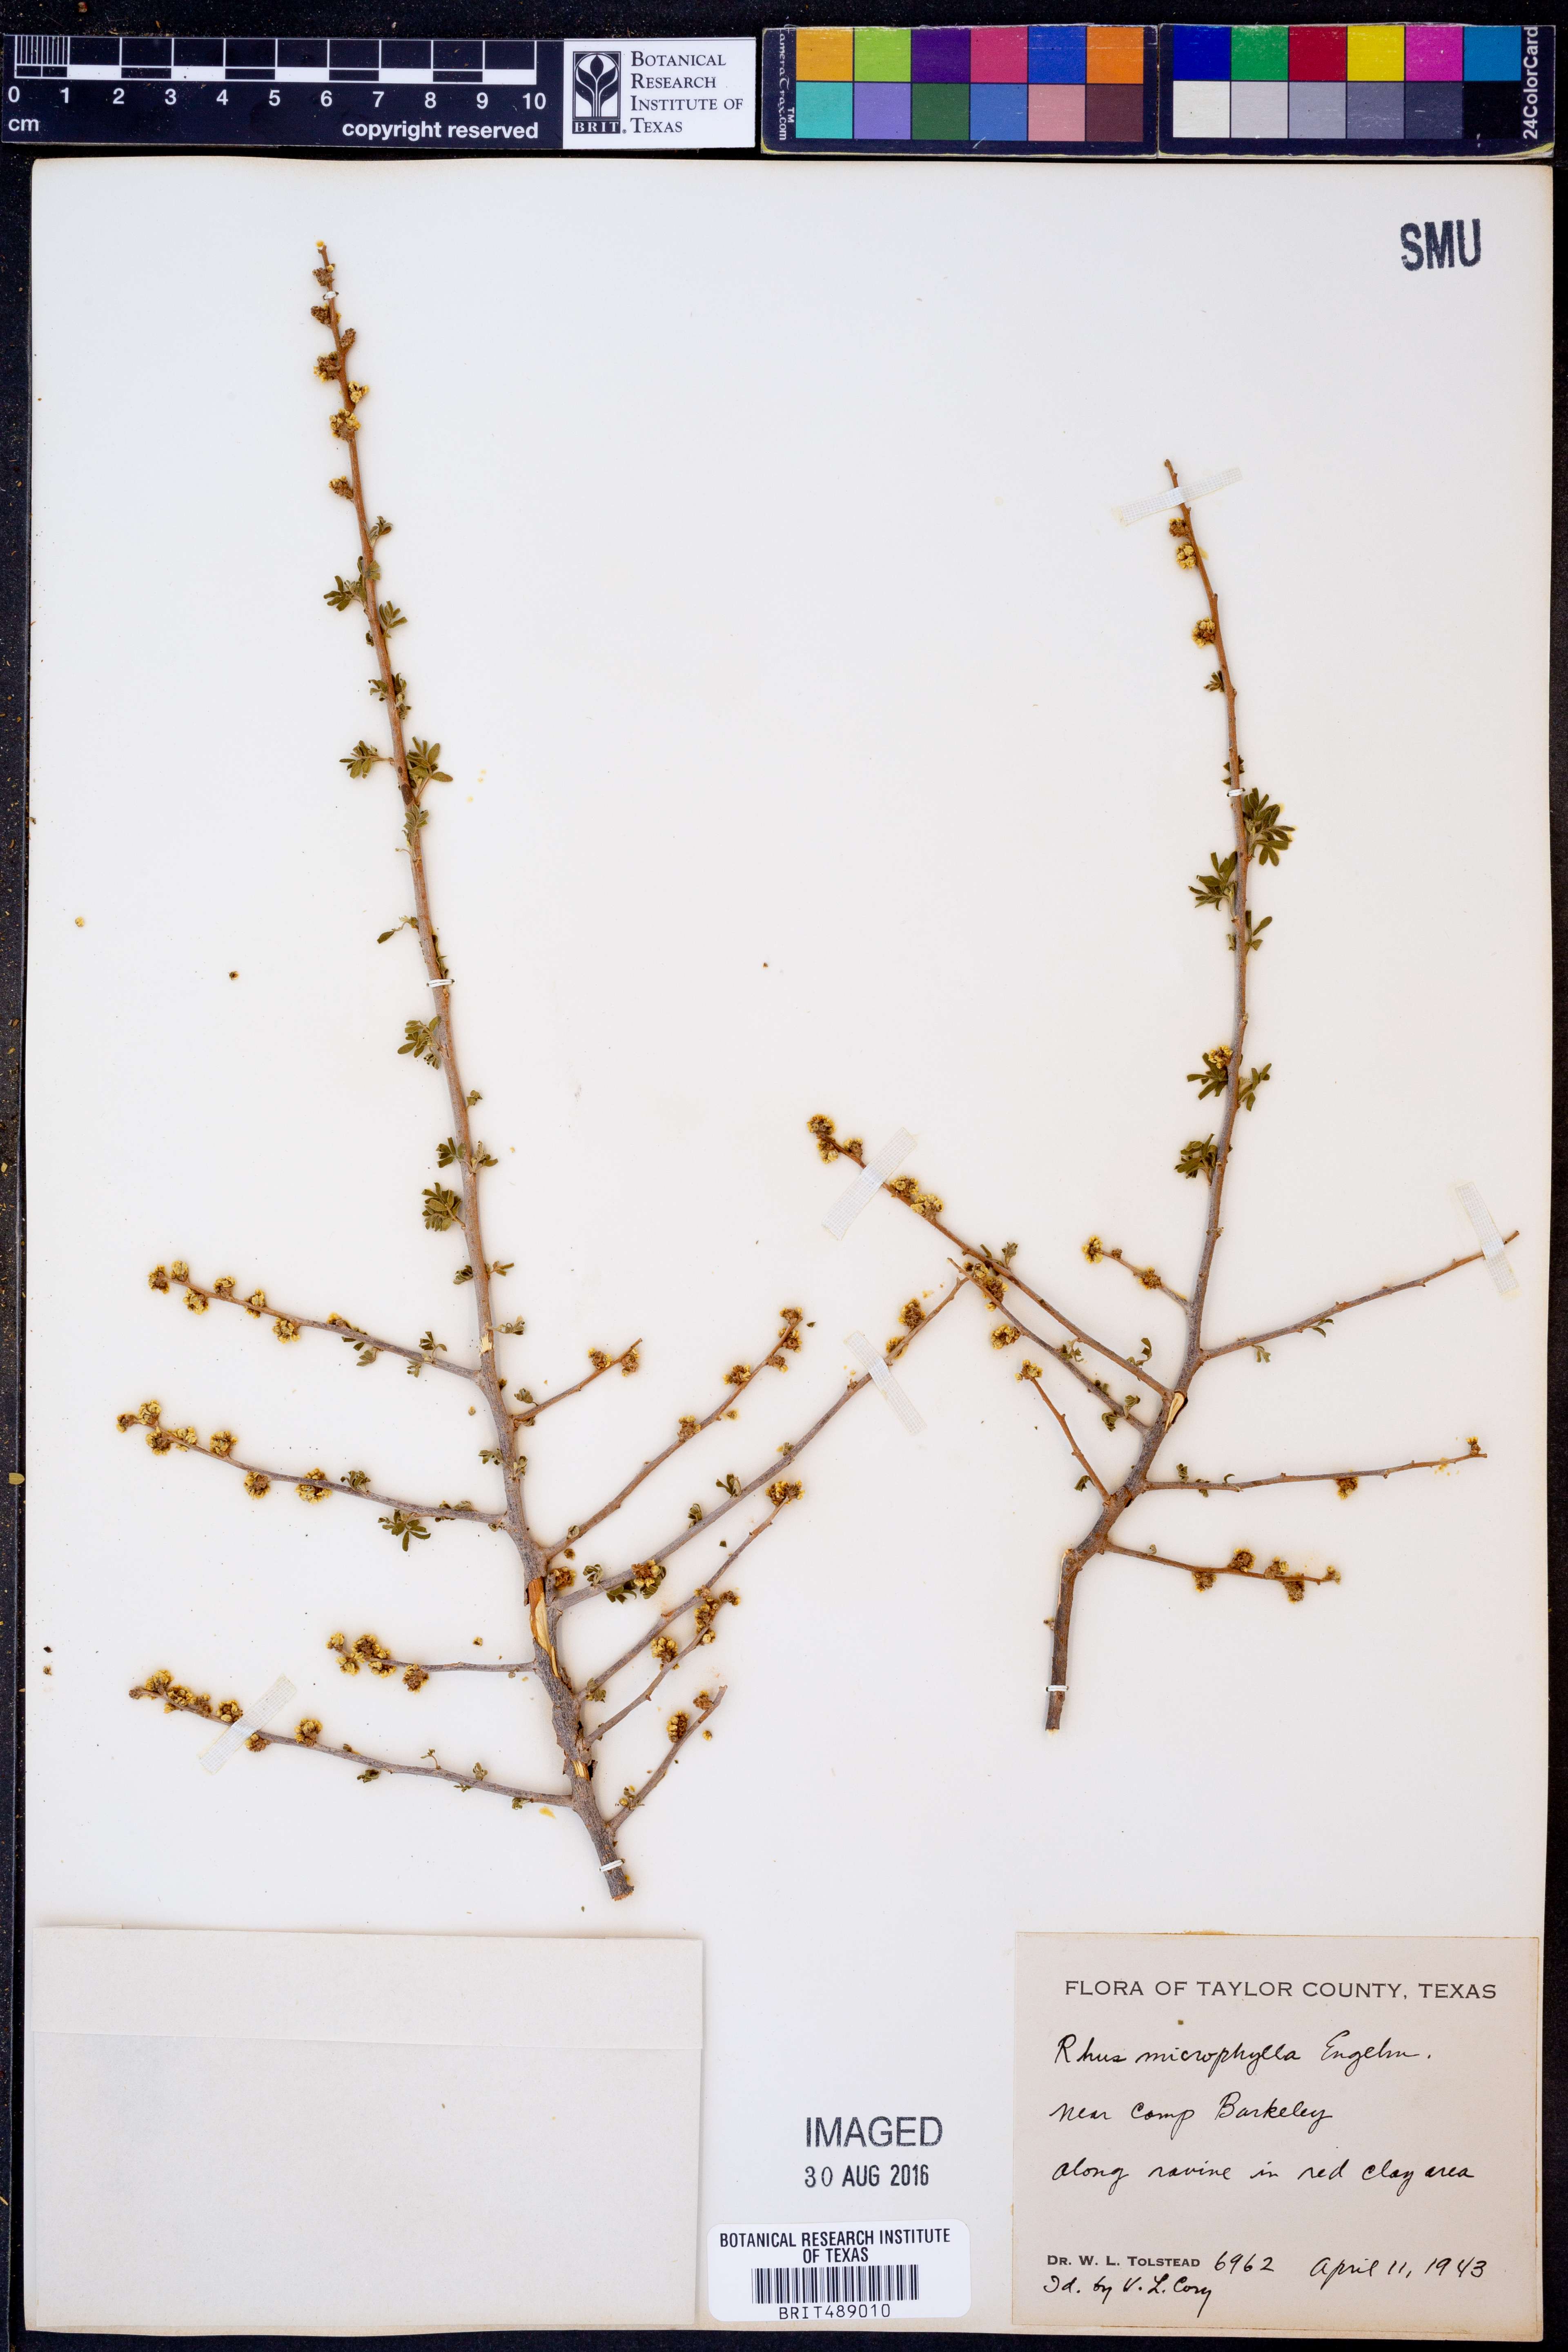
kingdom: Plantae
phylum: Tracheophyta
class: Magnoliopsida
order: Sapindales
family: Anacardiaceae
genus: Rhus
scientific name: Rhus microphylla
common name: Desert sumac
